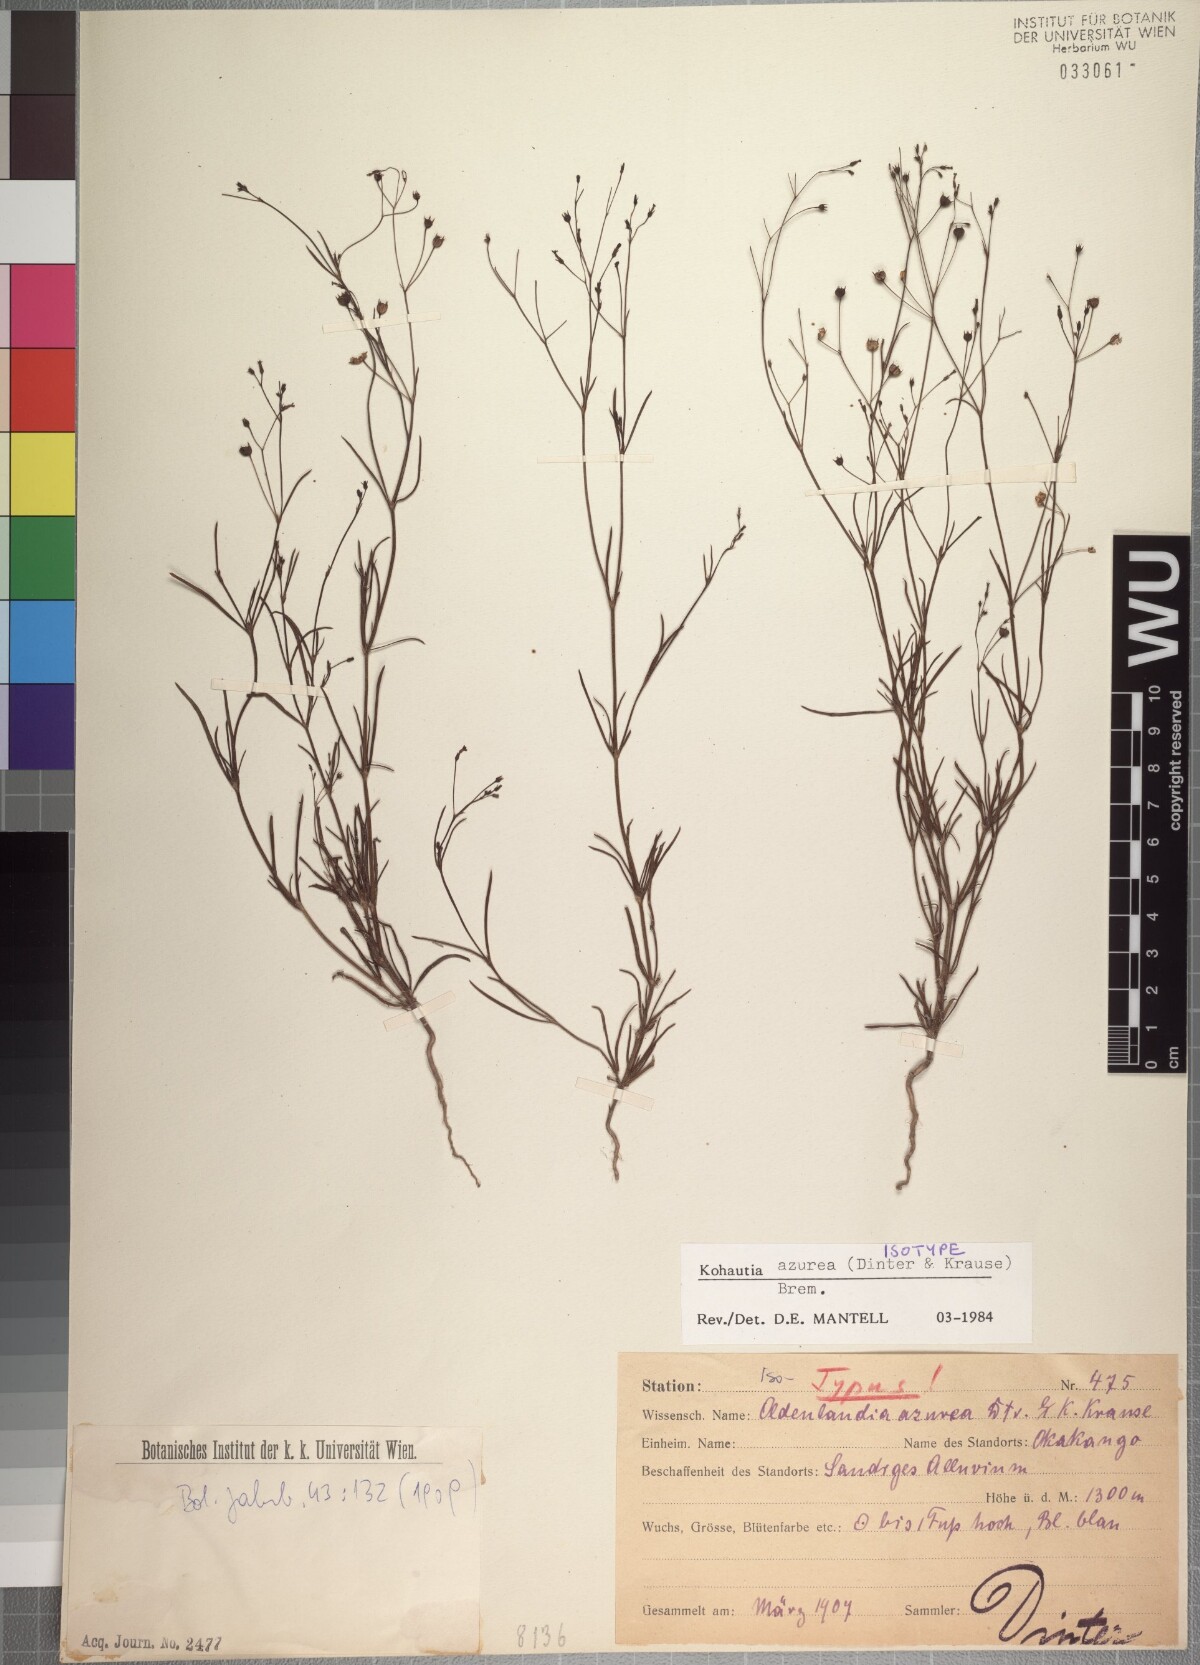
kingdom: Plantae
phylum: Tracheophyta
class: Magnoliopsida
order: Gentianales
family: Rubiaceae
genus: Kohautia
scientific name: Kohautia azurea
